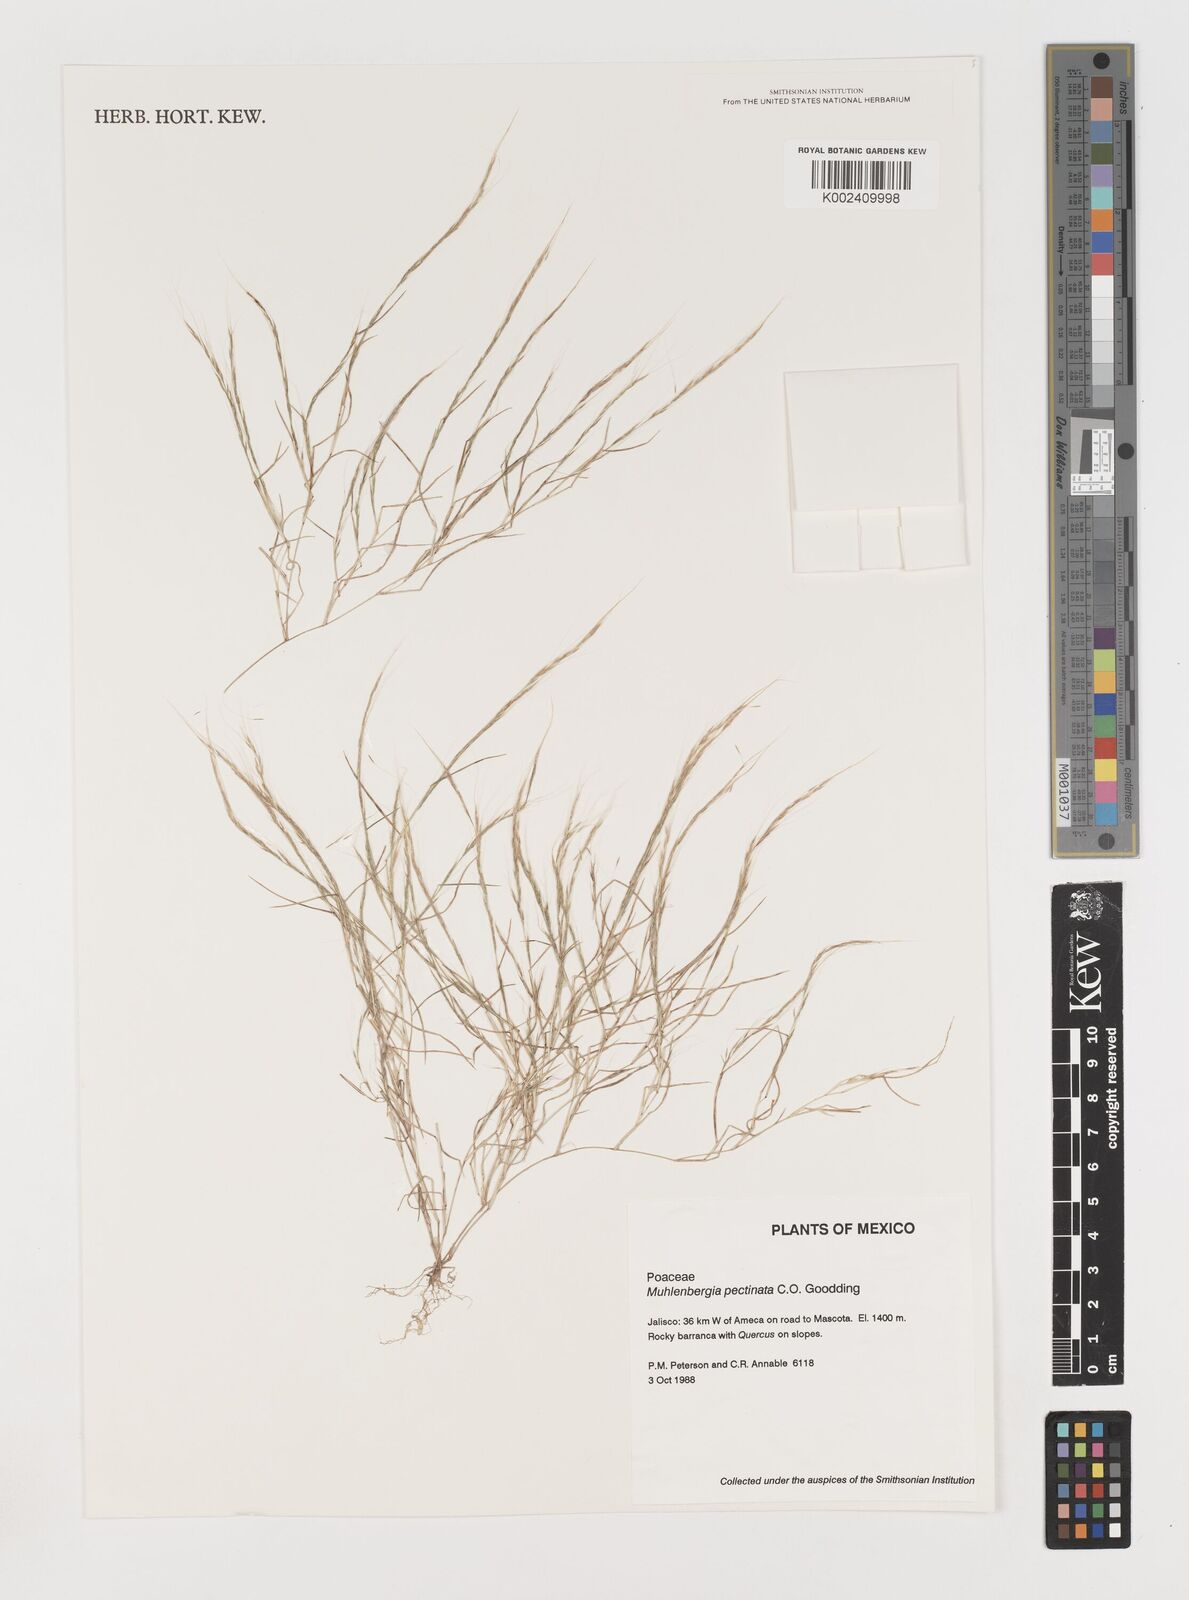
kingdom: Plantae
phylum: Tracheophyta
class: Liliopsida
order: Poales
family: Poaceae
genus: Muhlenbergia
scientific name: Muhlenbergia pectinata
